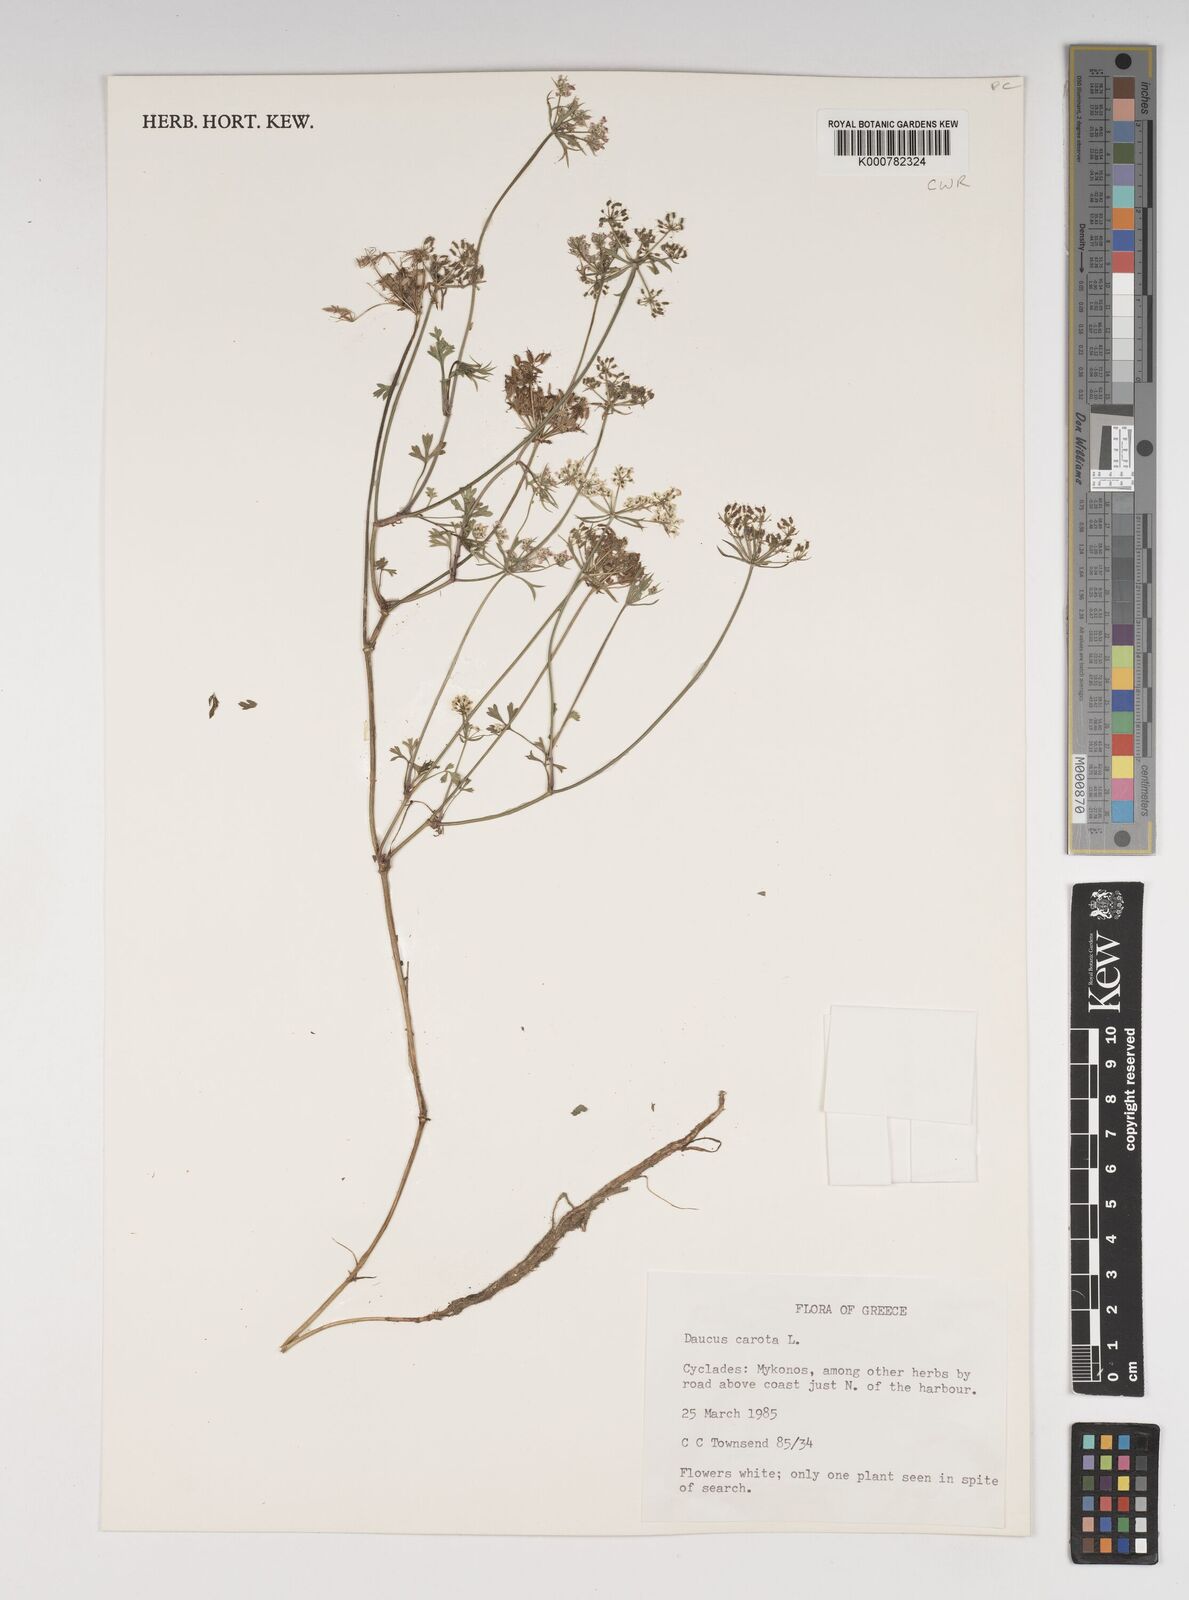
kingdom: Plantae
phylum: Tracheophyta
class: Magnoliopsida
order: Apiales
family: Apiaceae
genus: Daucus
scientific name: Daucus carota
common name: Wild carrot
